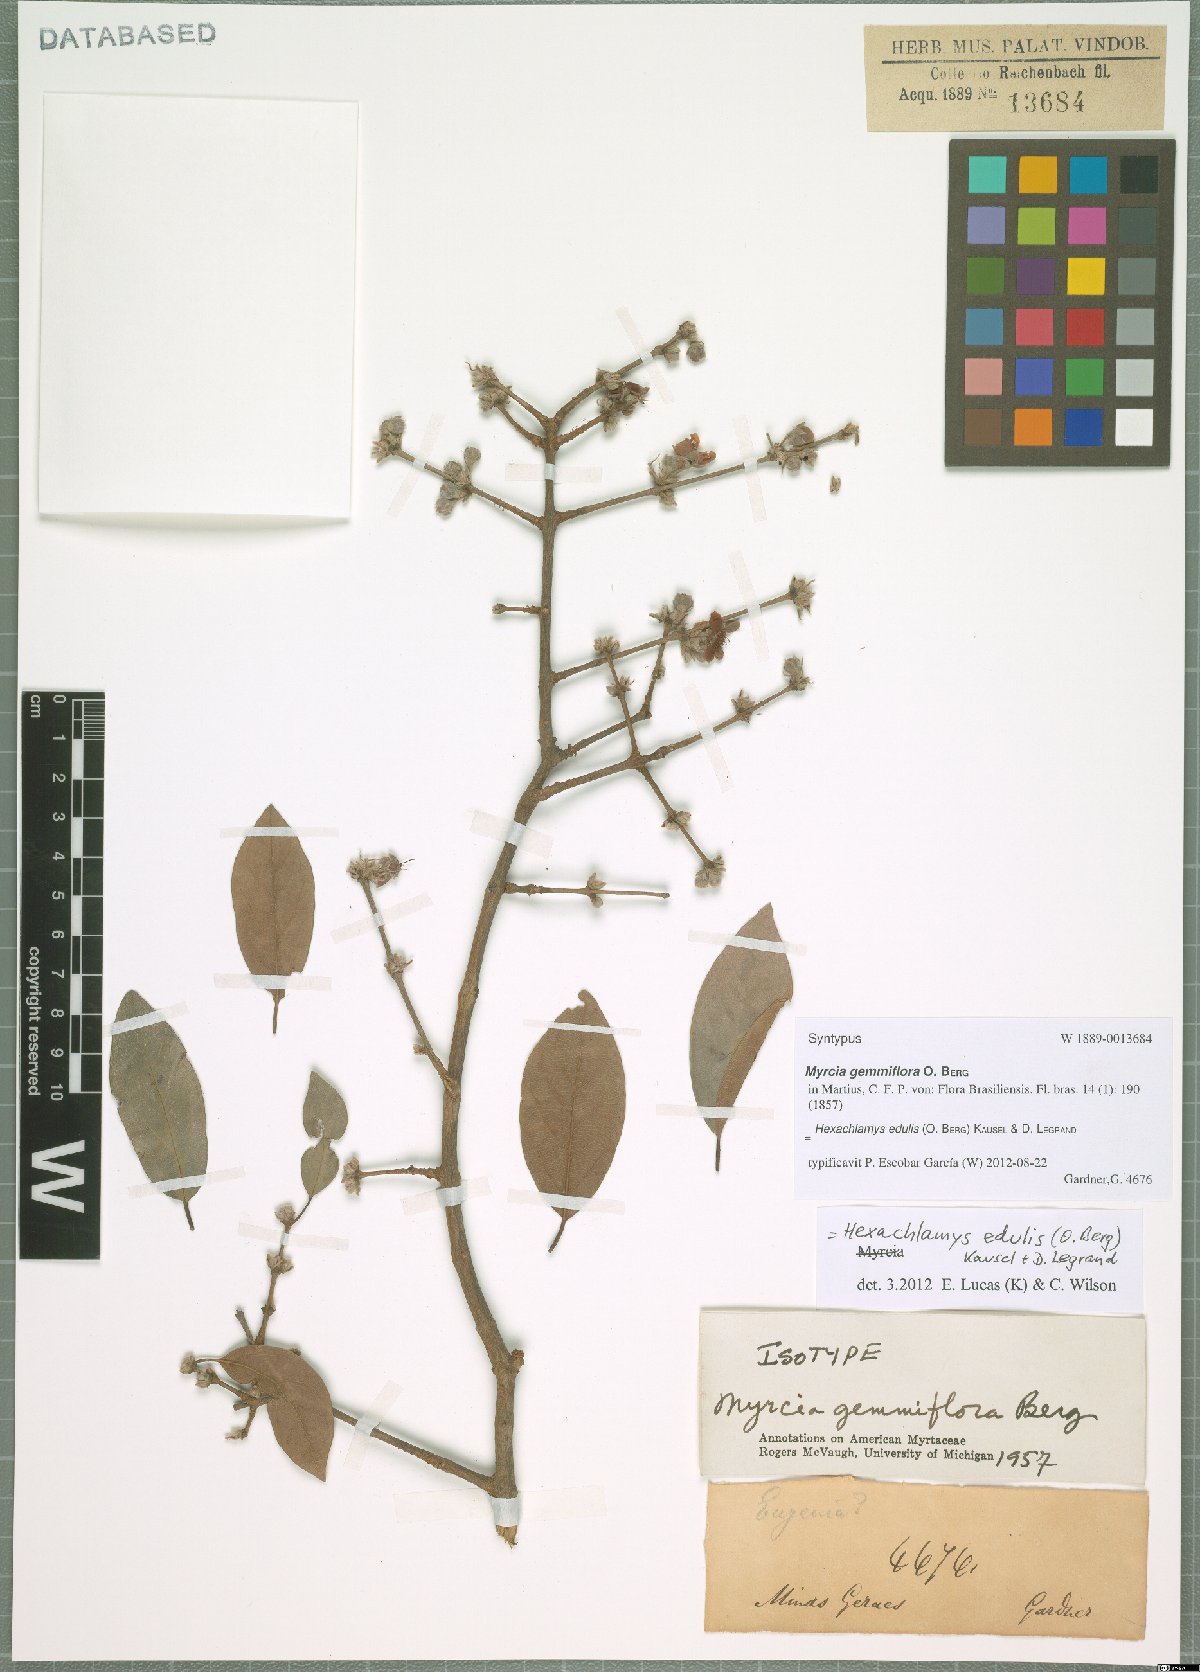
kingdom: Plantae
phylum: Tracheophyta
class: Magnoliopsida
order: Myrtales
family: Myrtaceae
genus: Eugenia
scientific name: Eugenia myrcianthes
